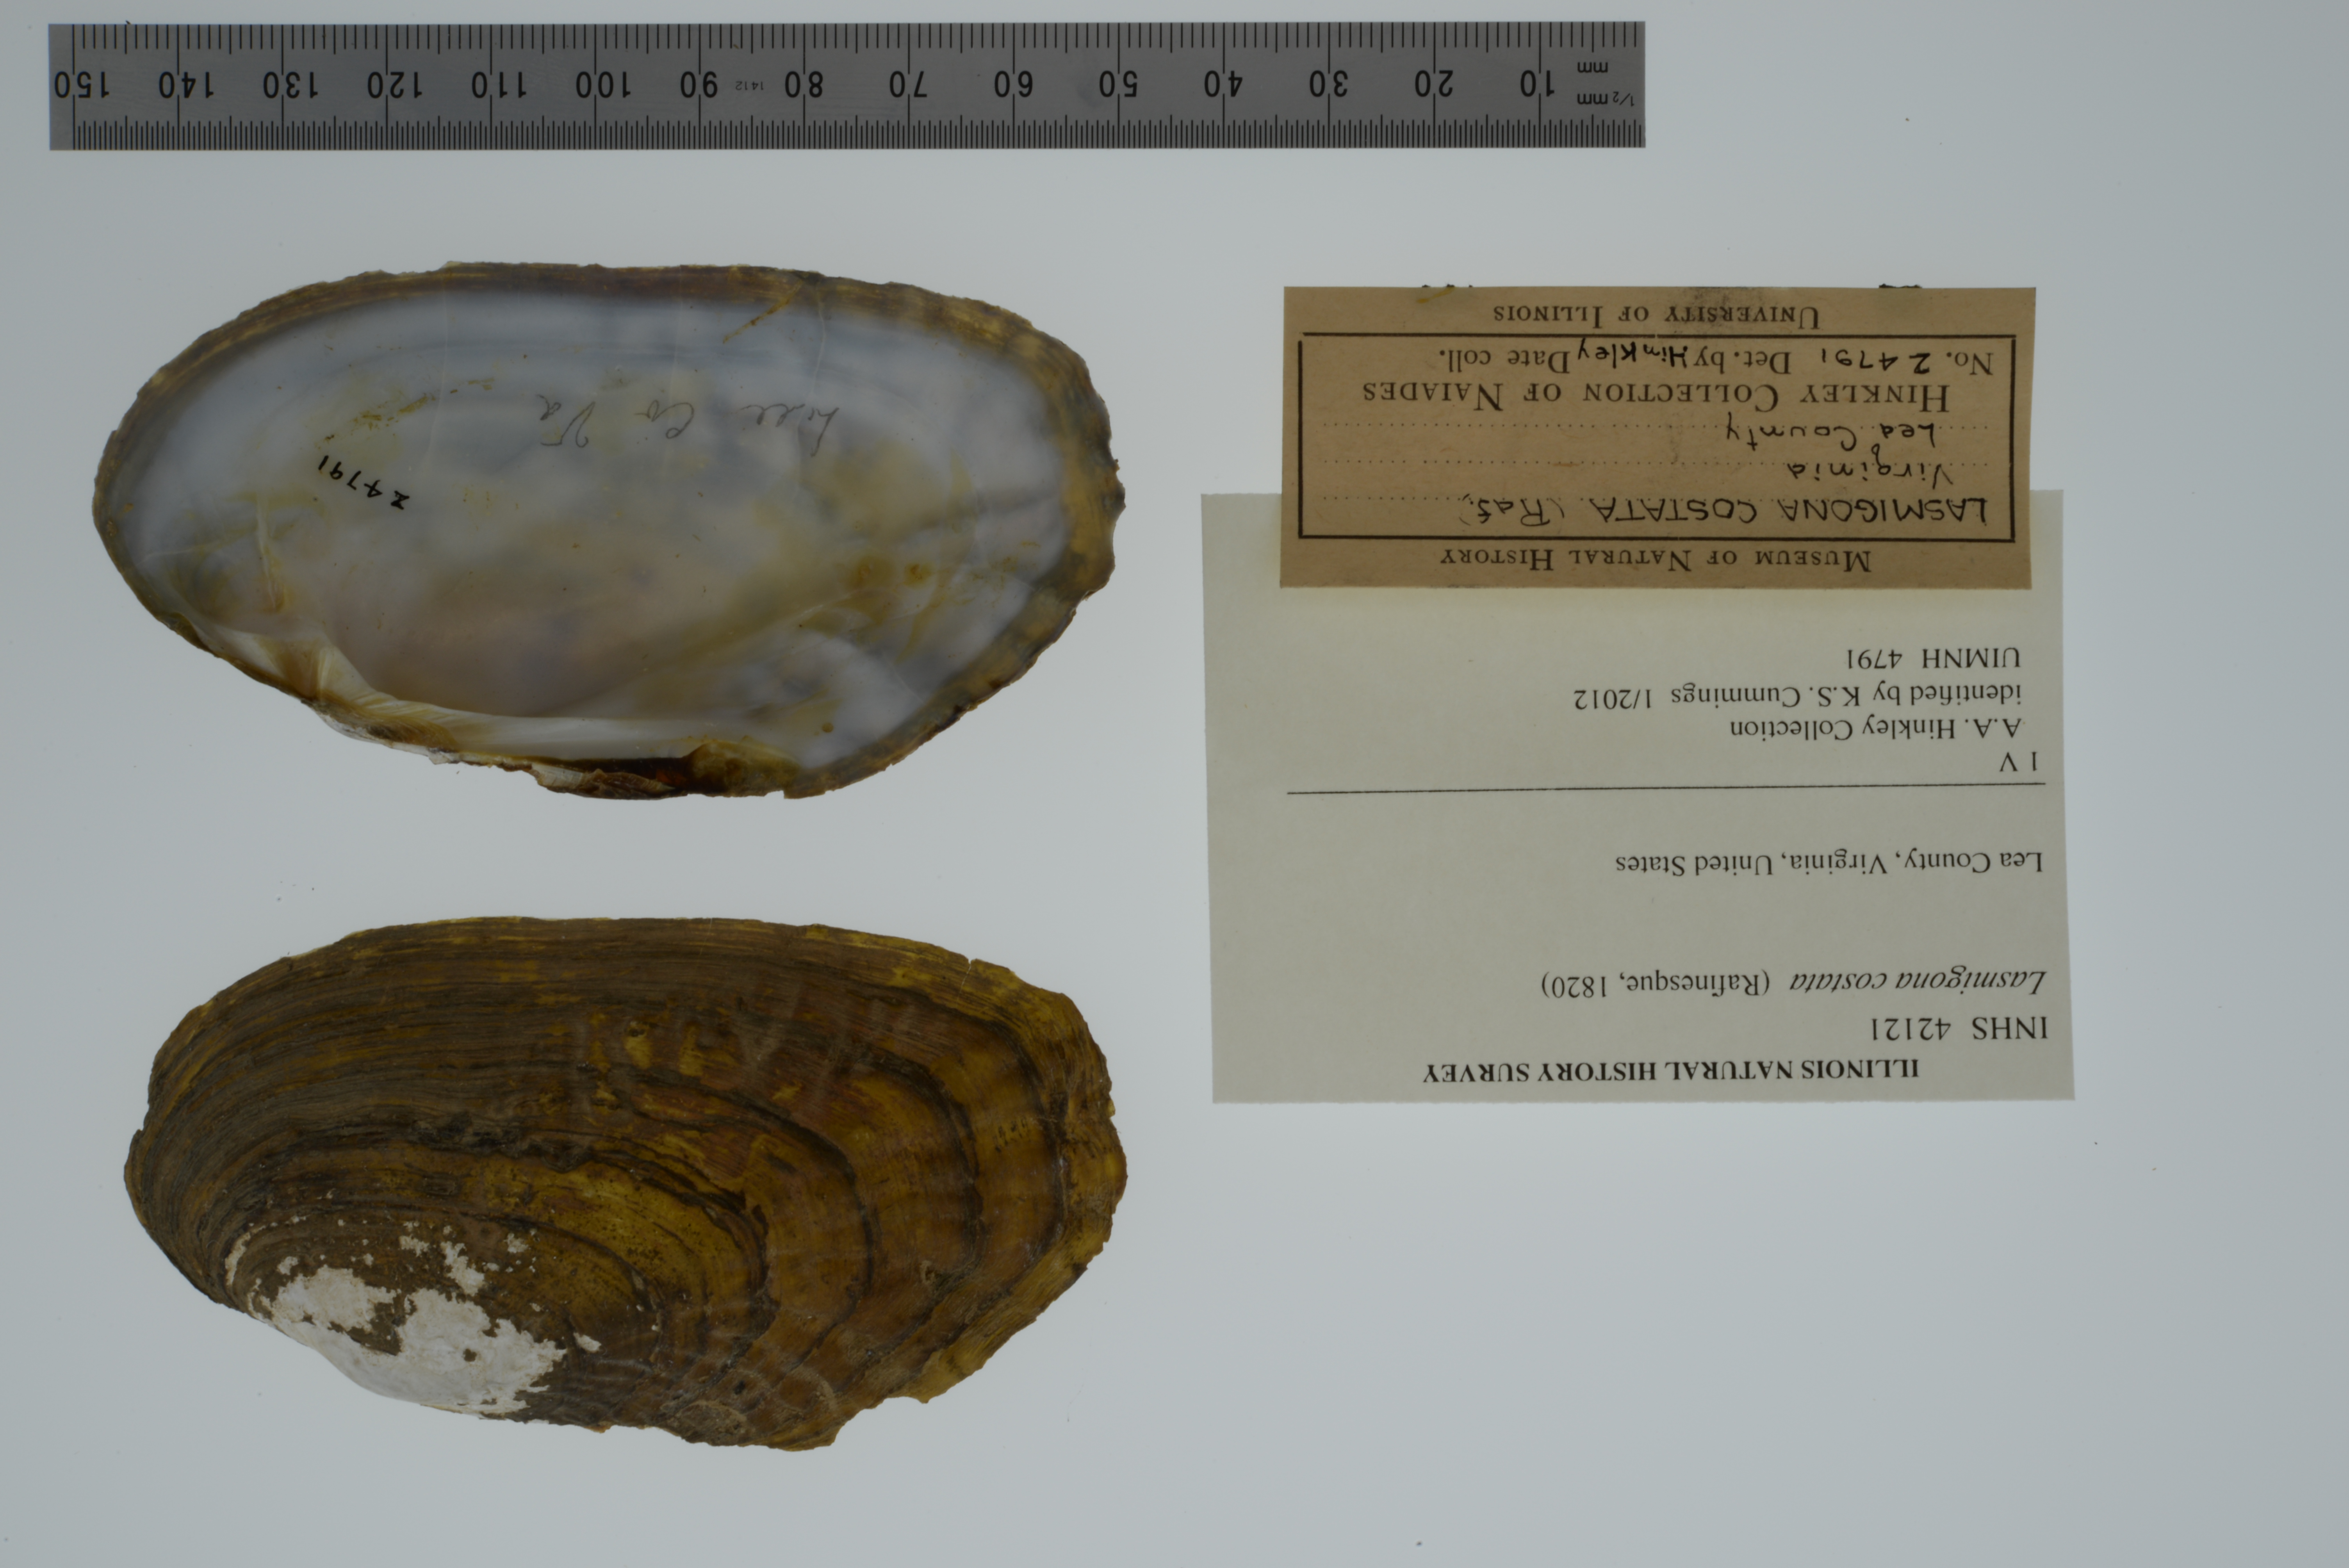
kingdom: Animalia
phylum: Mollusca
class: Bivalvia
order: Unionida
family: Unionidae
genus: Lasmigona
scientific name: Lasmigona costata
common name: Flutedshell
